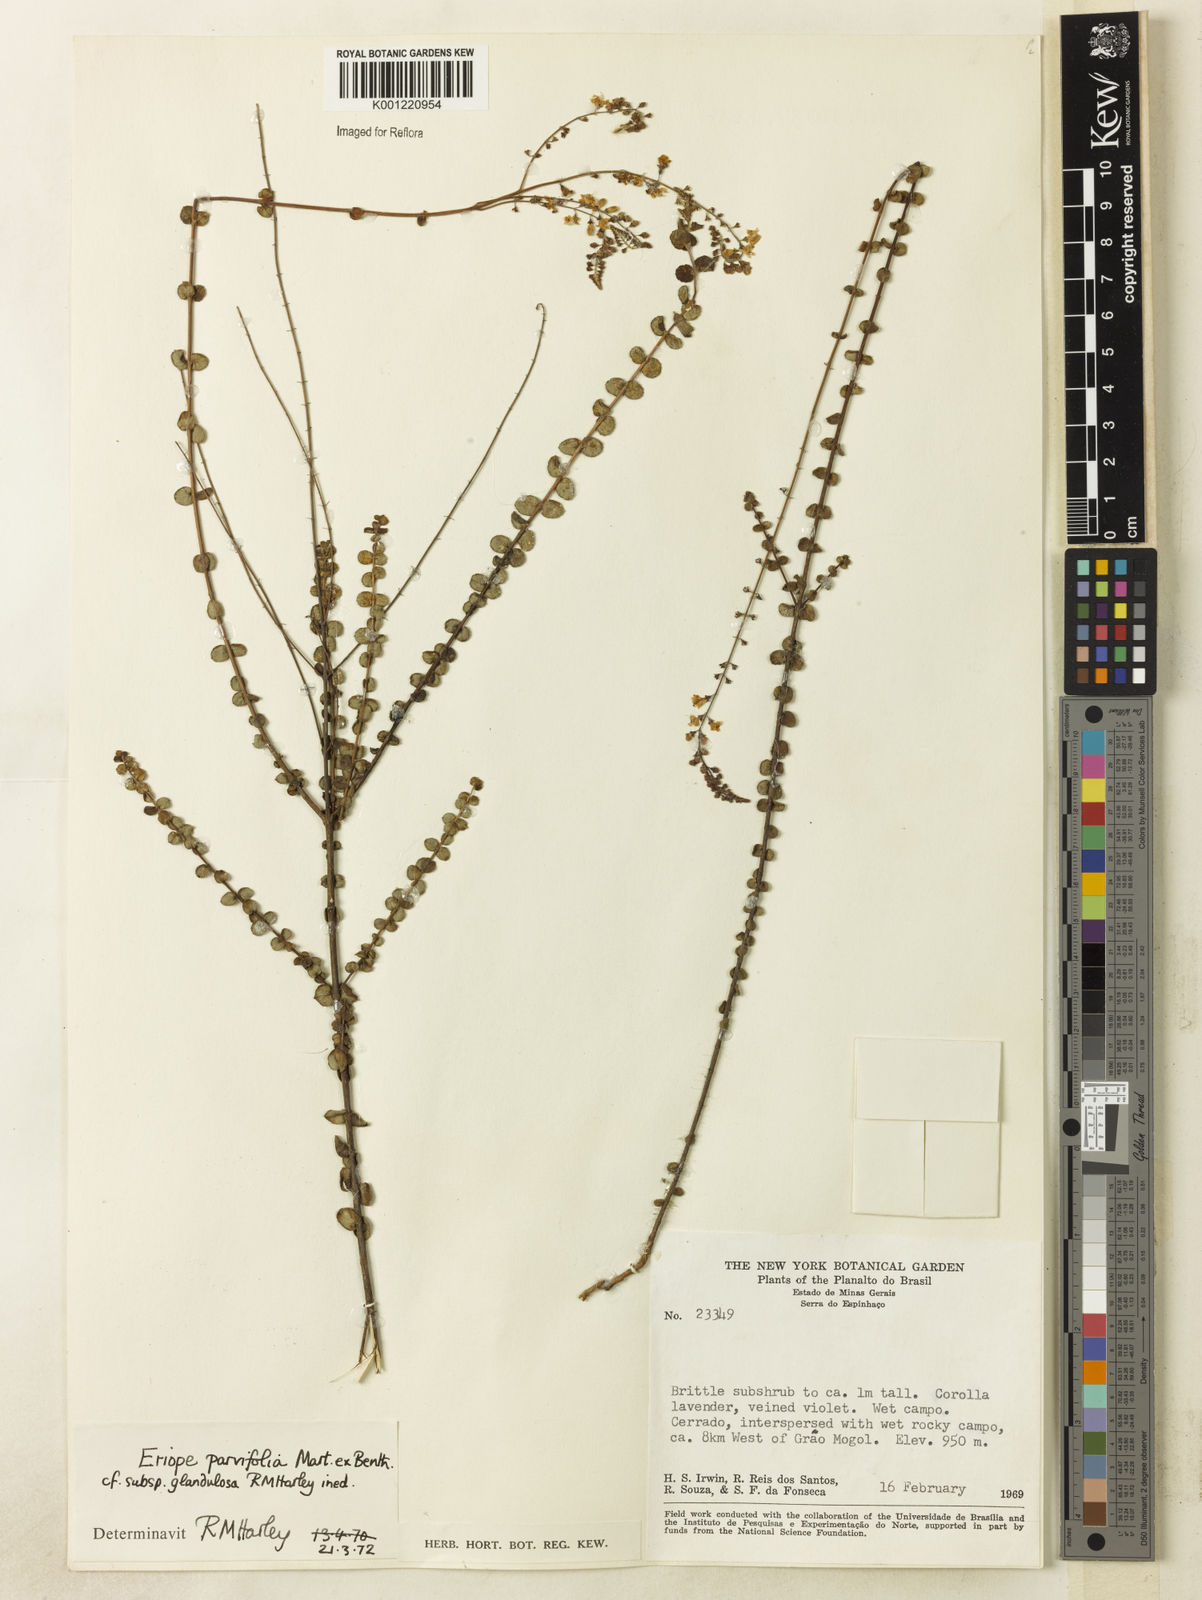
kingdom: Plantae
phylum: Tracheophyta
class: Magnoliopsida
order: Lamiales
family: Lamiaceae
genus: Eriope
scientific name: Eriope glandulosa
